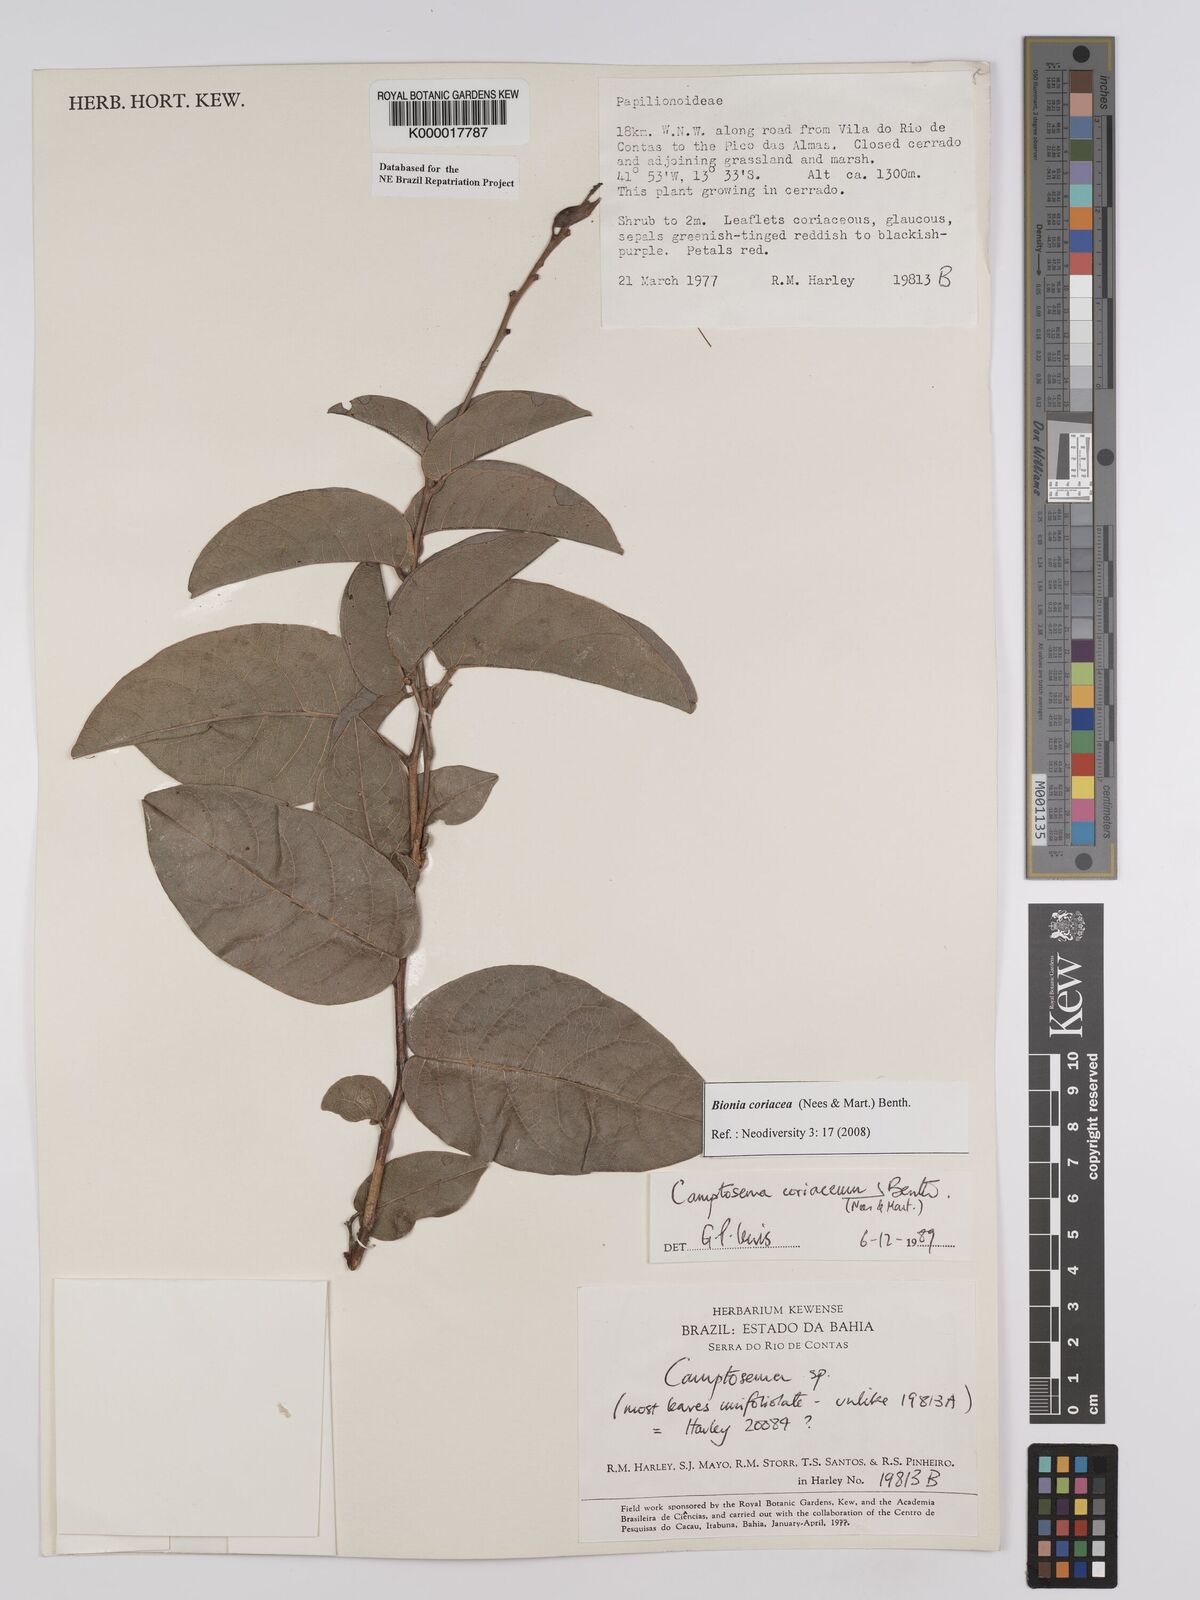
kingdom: Plantae
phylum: Tracheophyta
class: Magnoliopsida
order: Fabales
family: Fabaceae
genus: Camptosema
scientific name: Camptosema coriaceum
